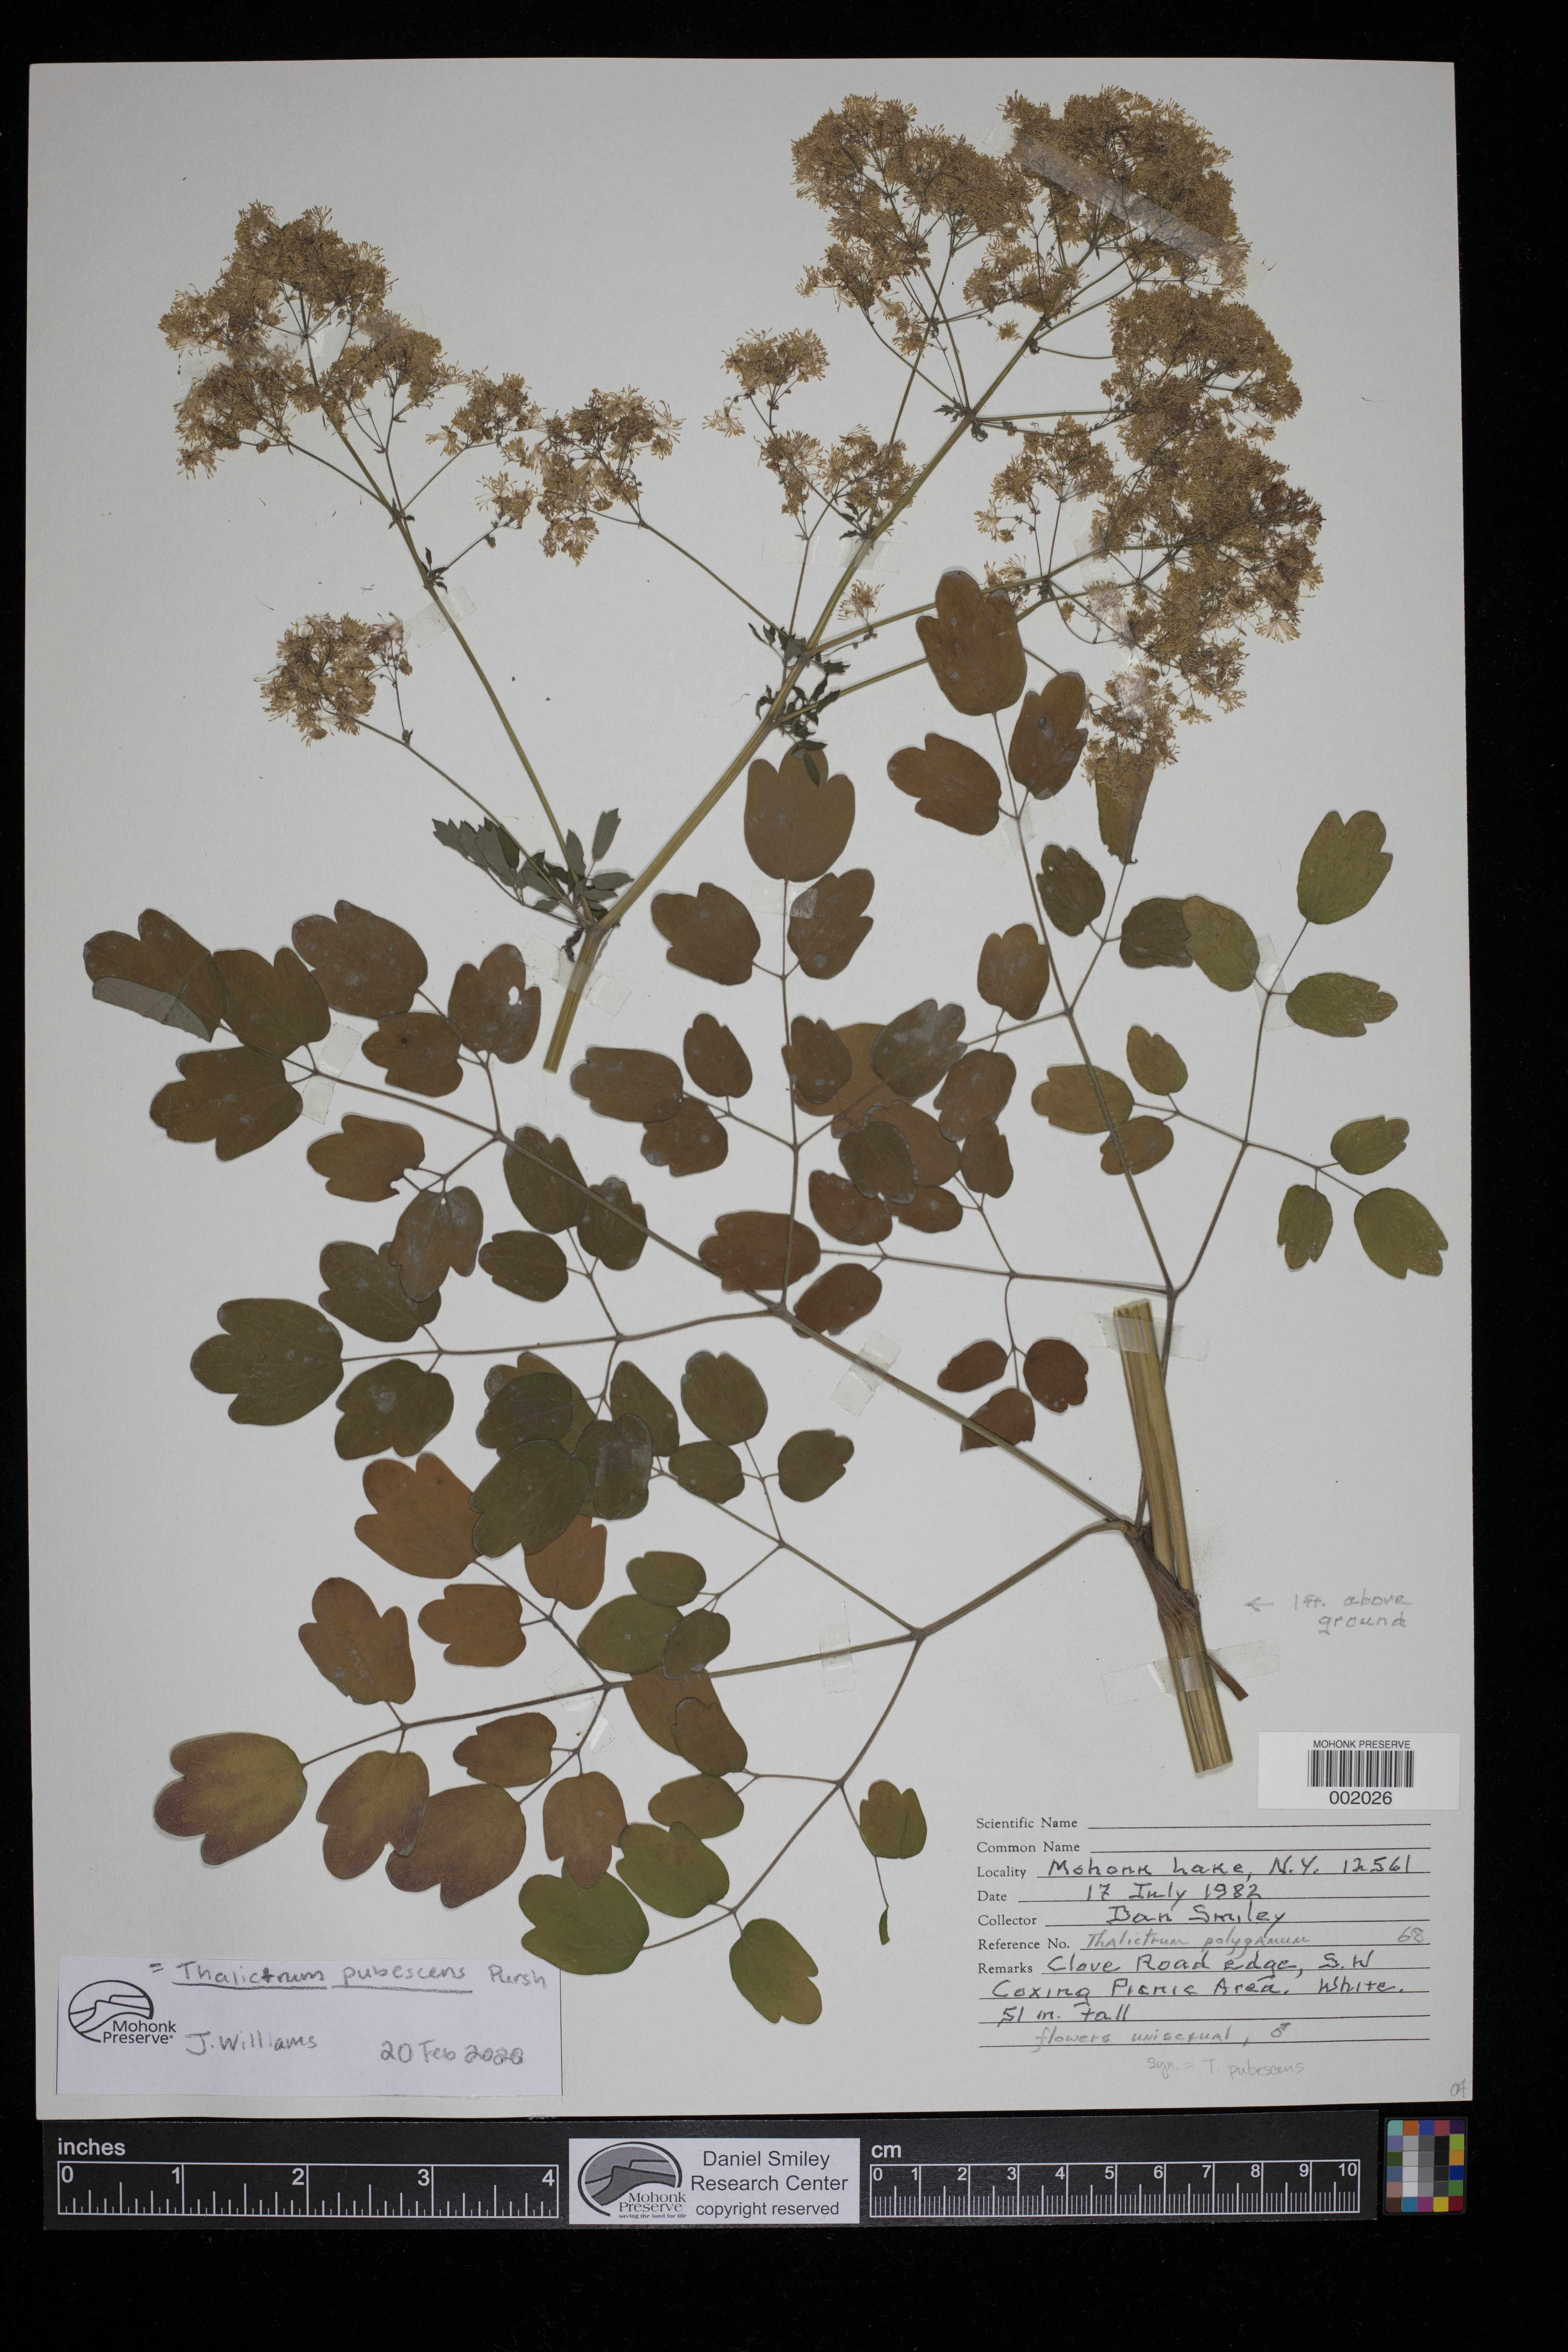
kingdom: Plantae
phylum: Tracheophyta
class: Magnoliopsida
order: Ranunculales
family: Ranunculaceae
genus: Thalictrum
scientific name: Thalictrum pubescens
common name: King-of-the-meadow
